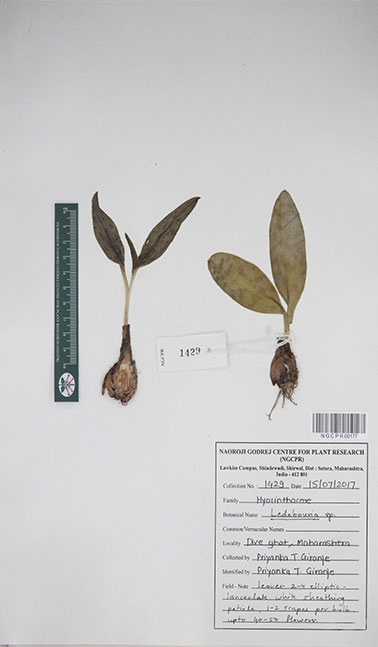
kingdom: Plantae
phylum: Tracheophyta
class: Liliopsida
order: Asparagales
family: Asparagaceae
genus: Ledebouria
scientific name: Ledebouria
